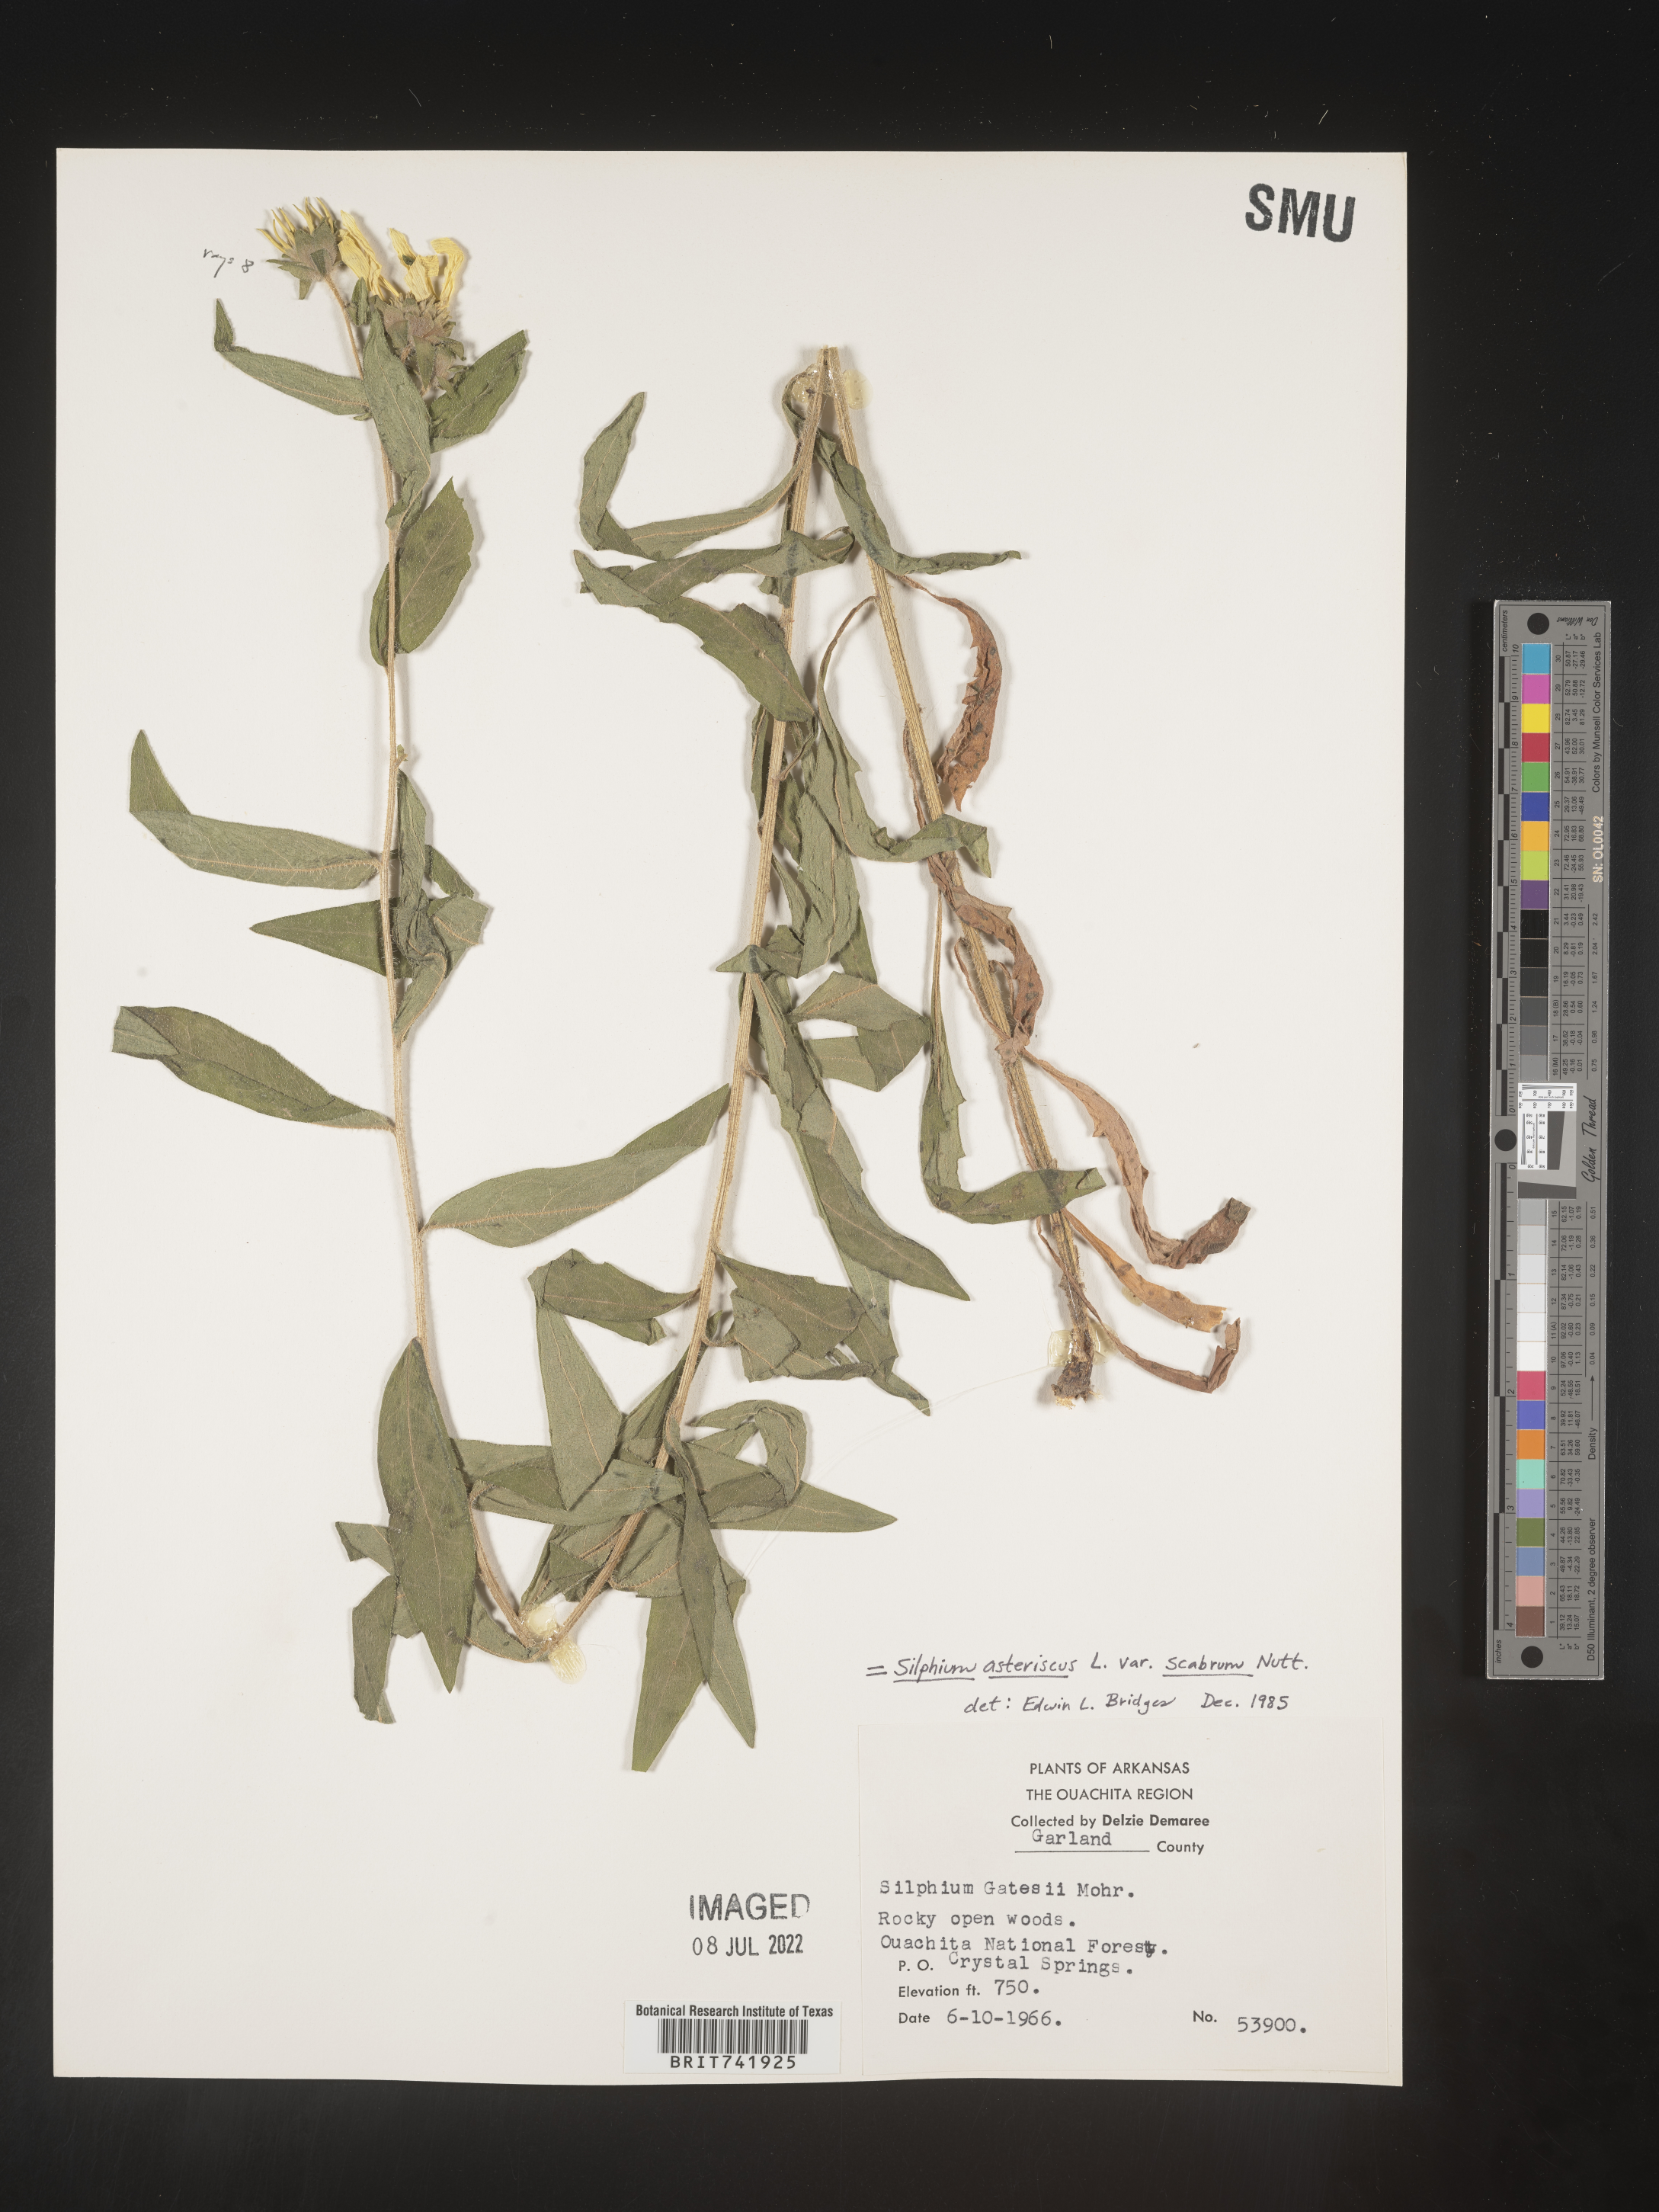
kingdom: Plantae
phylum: Tracheophyta
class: Magnoliopsida
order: Asterales
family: Asteraceae
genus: Silphium
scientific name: Silphium asperrimum
